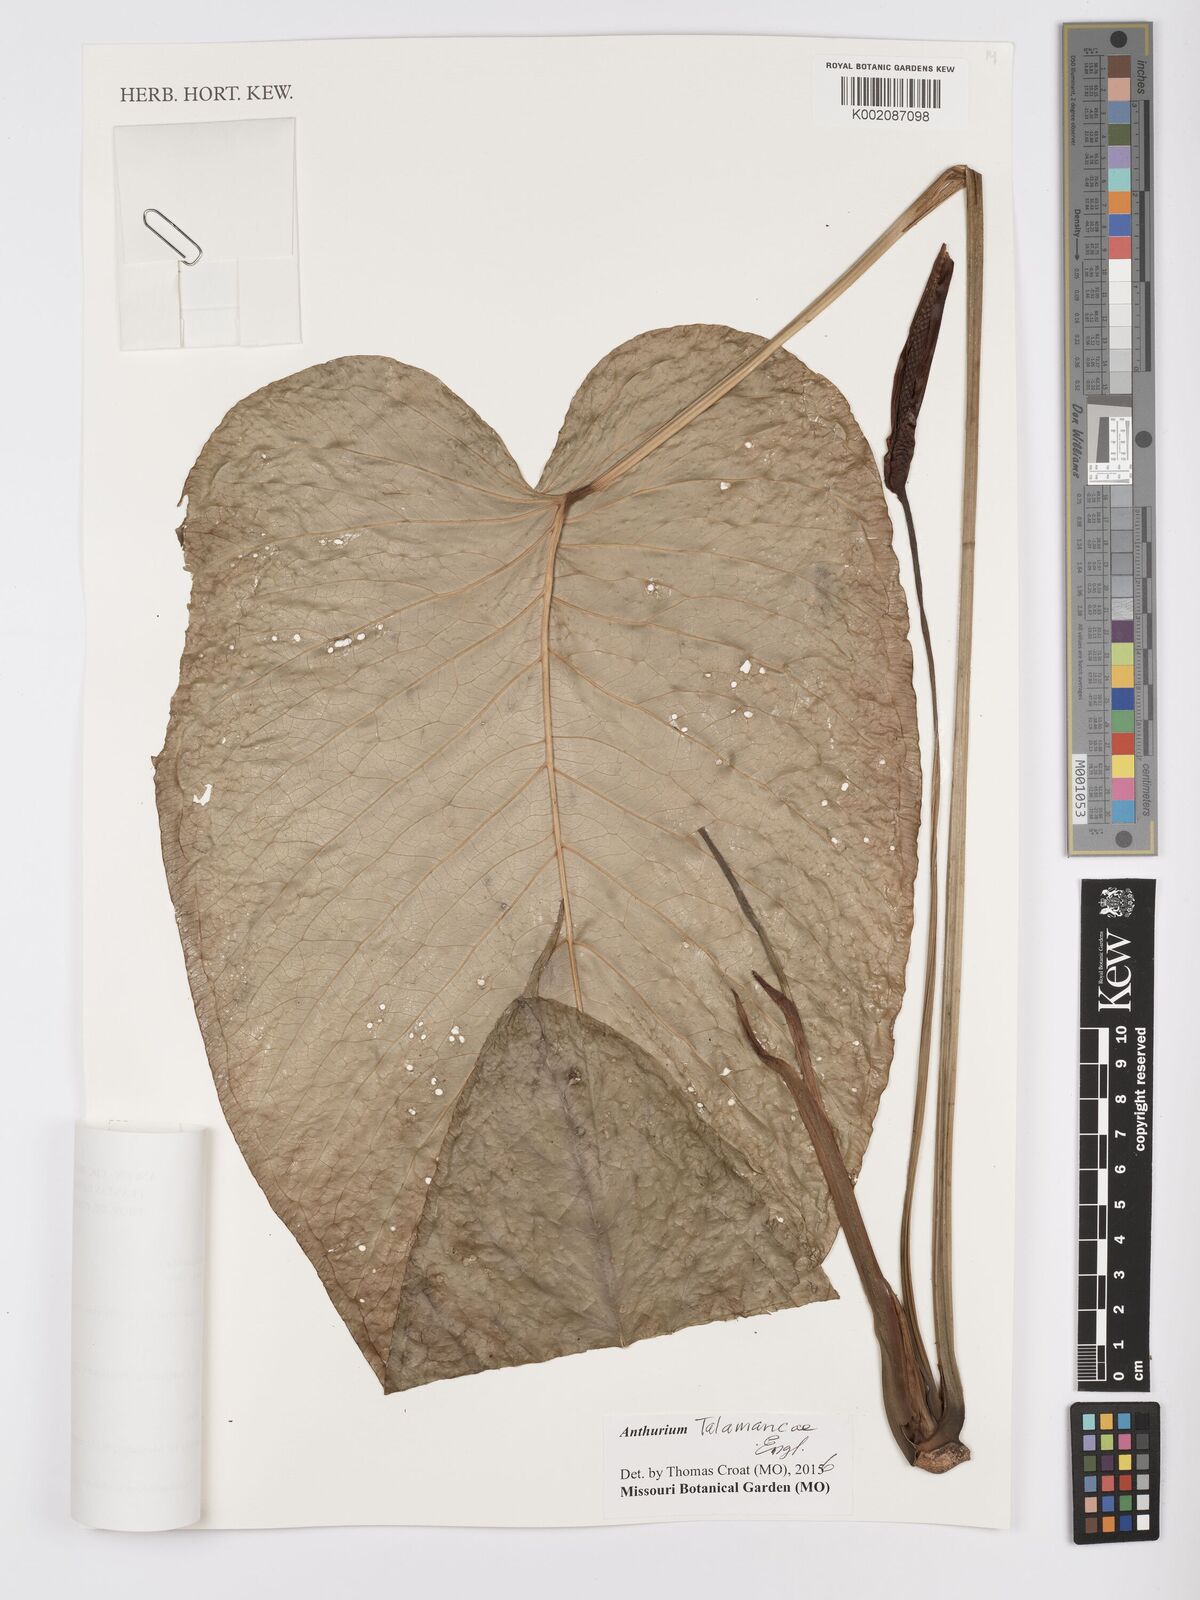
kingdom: Plantae
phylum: Tracheophyta
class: Liliopsida
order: Alismatales
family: Araceae
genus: Anthurium
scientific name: Anthurium talamancae
